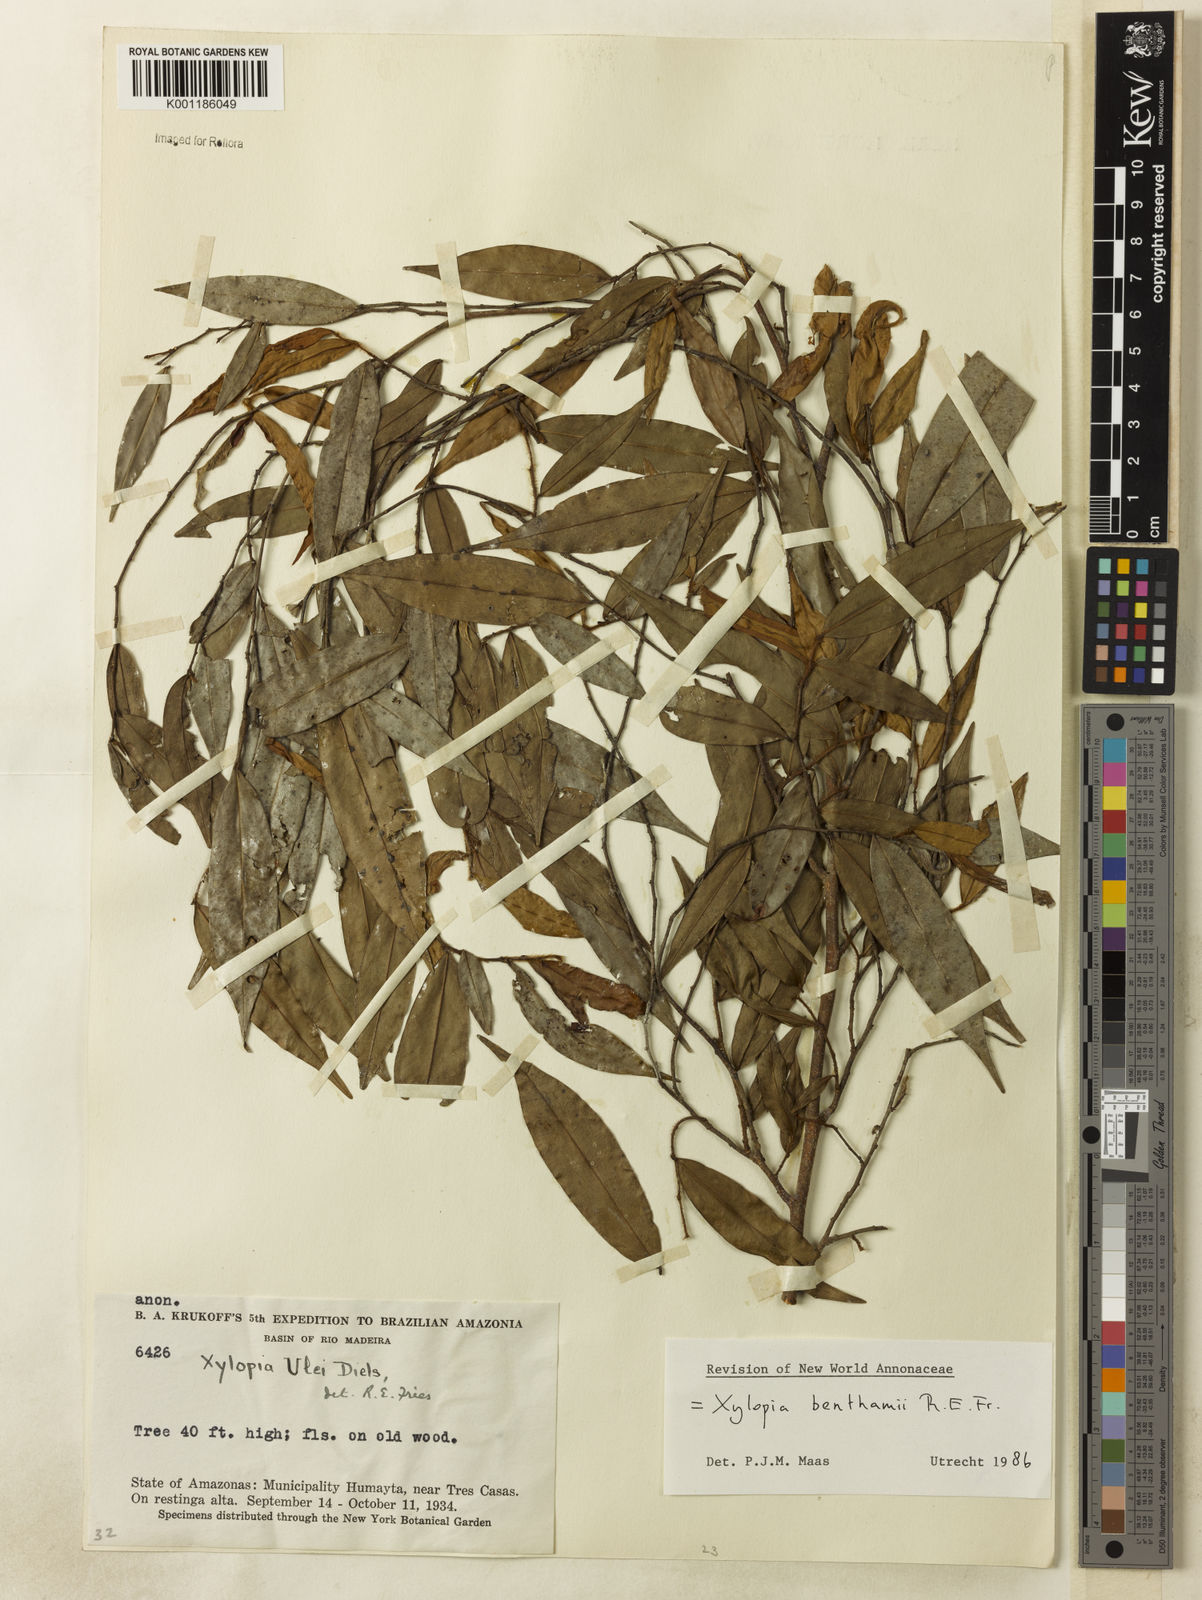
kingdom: Plantae
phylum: Tracheophyta
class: Magnoliopsida
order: Magnoliales
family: Annonaceae
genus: Xylopia
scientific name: Xylopia benthamii
